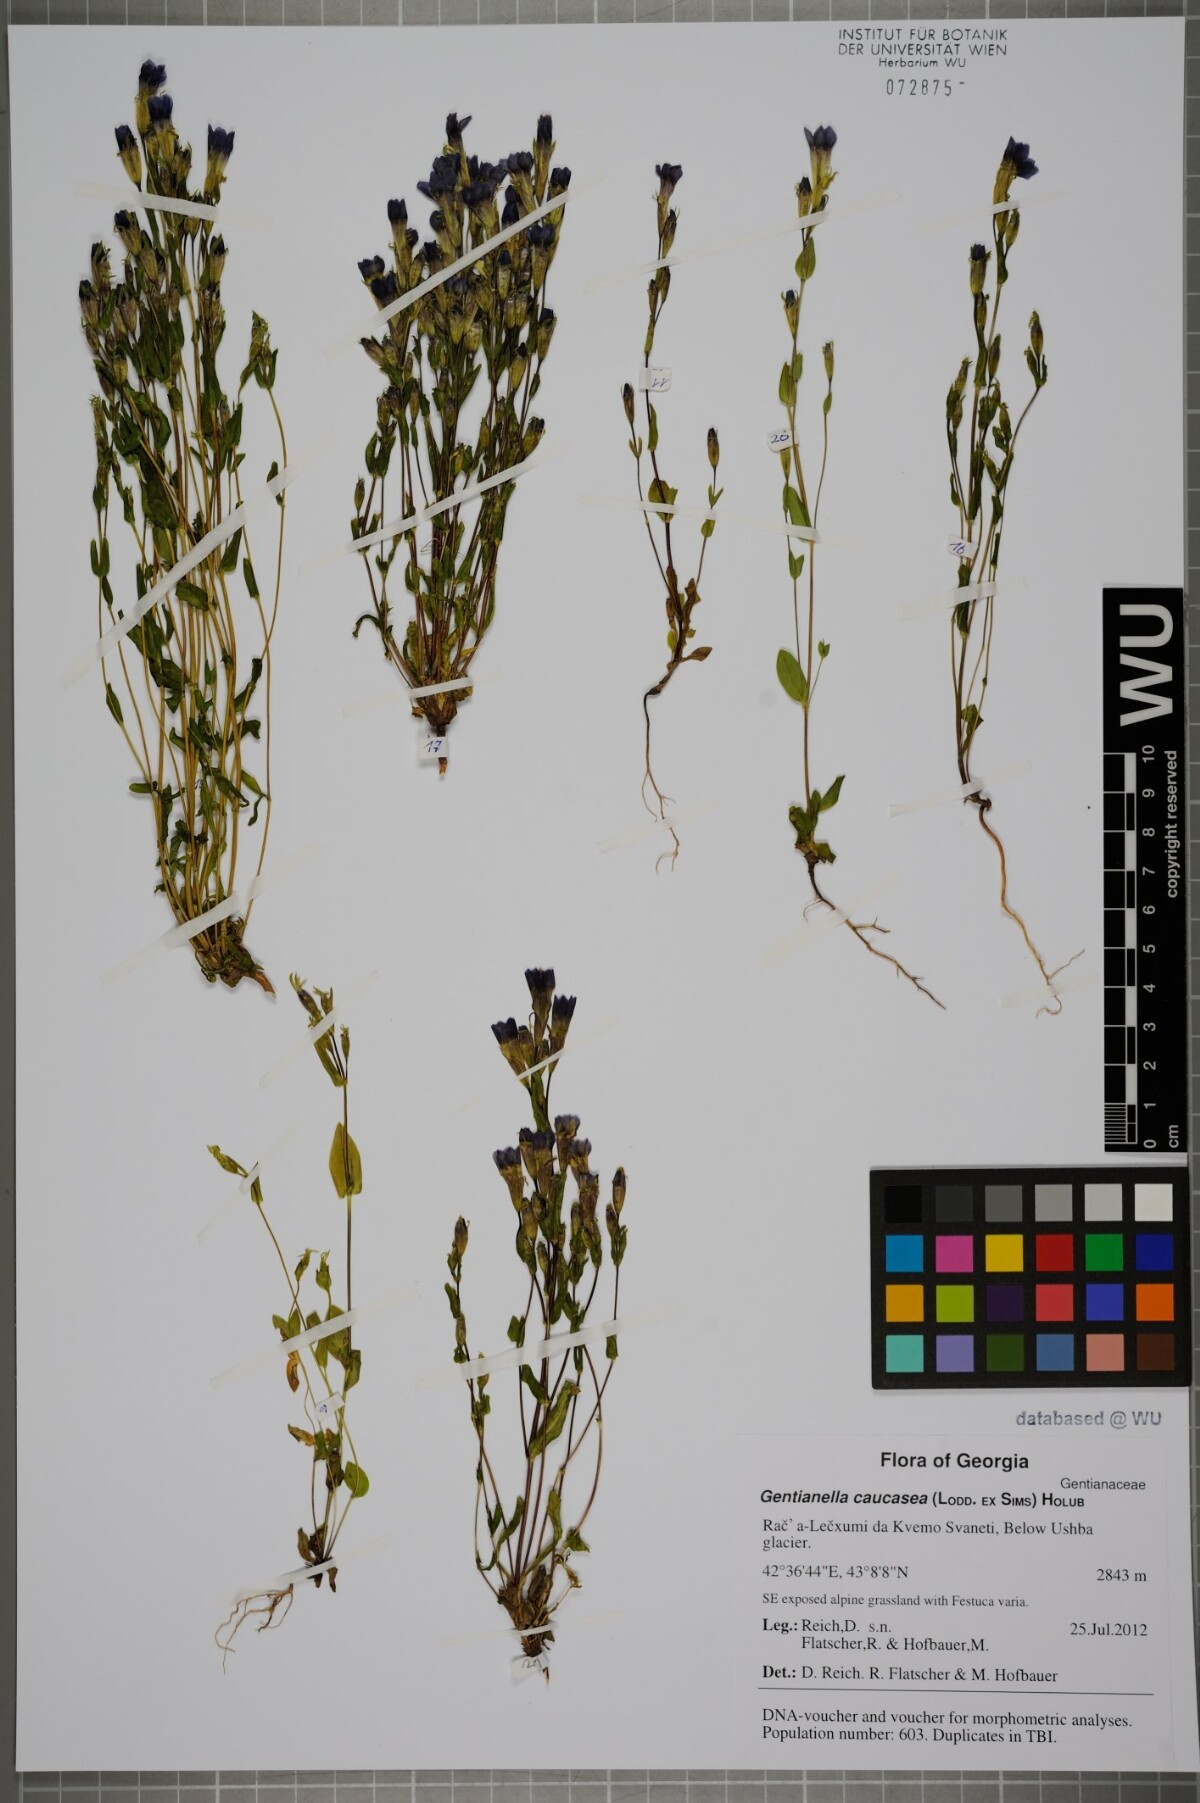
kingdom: Plantae
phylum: Tracheophyta
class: Magnoliopsida
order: Gentianales
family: Gentianaceae
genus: Gentianella
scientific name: Gentianella caucasea
